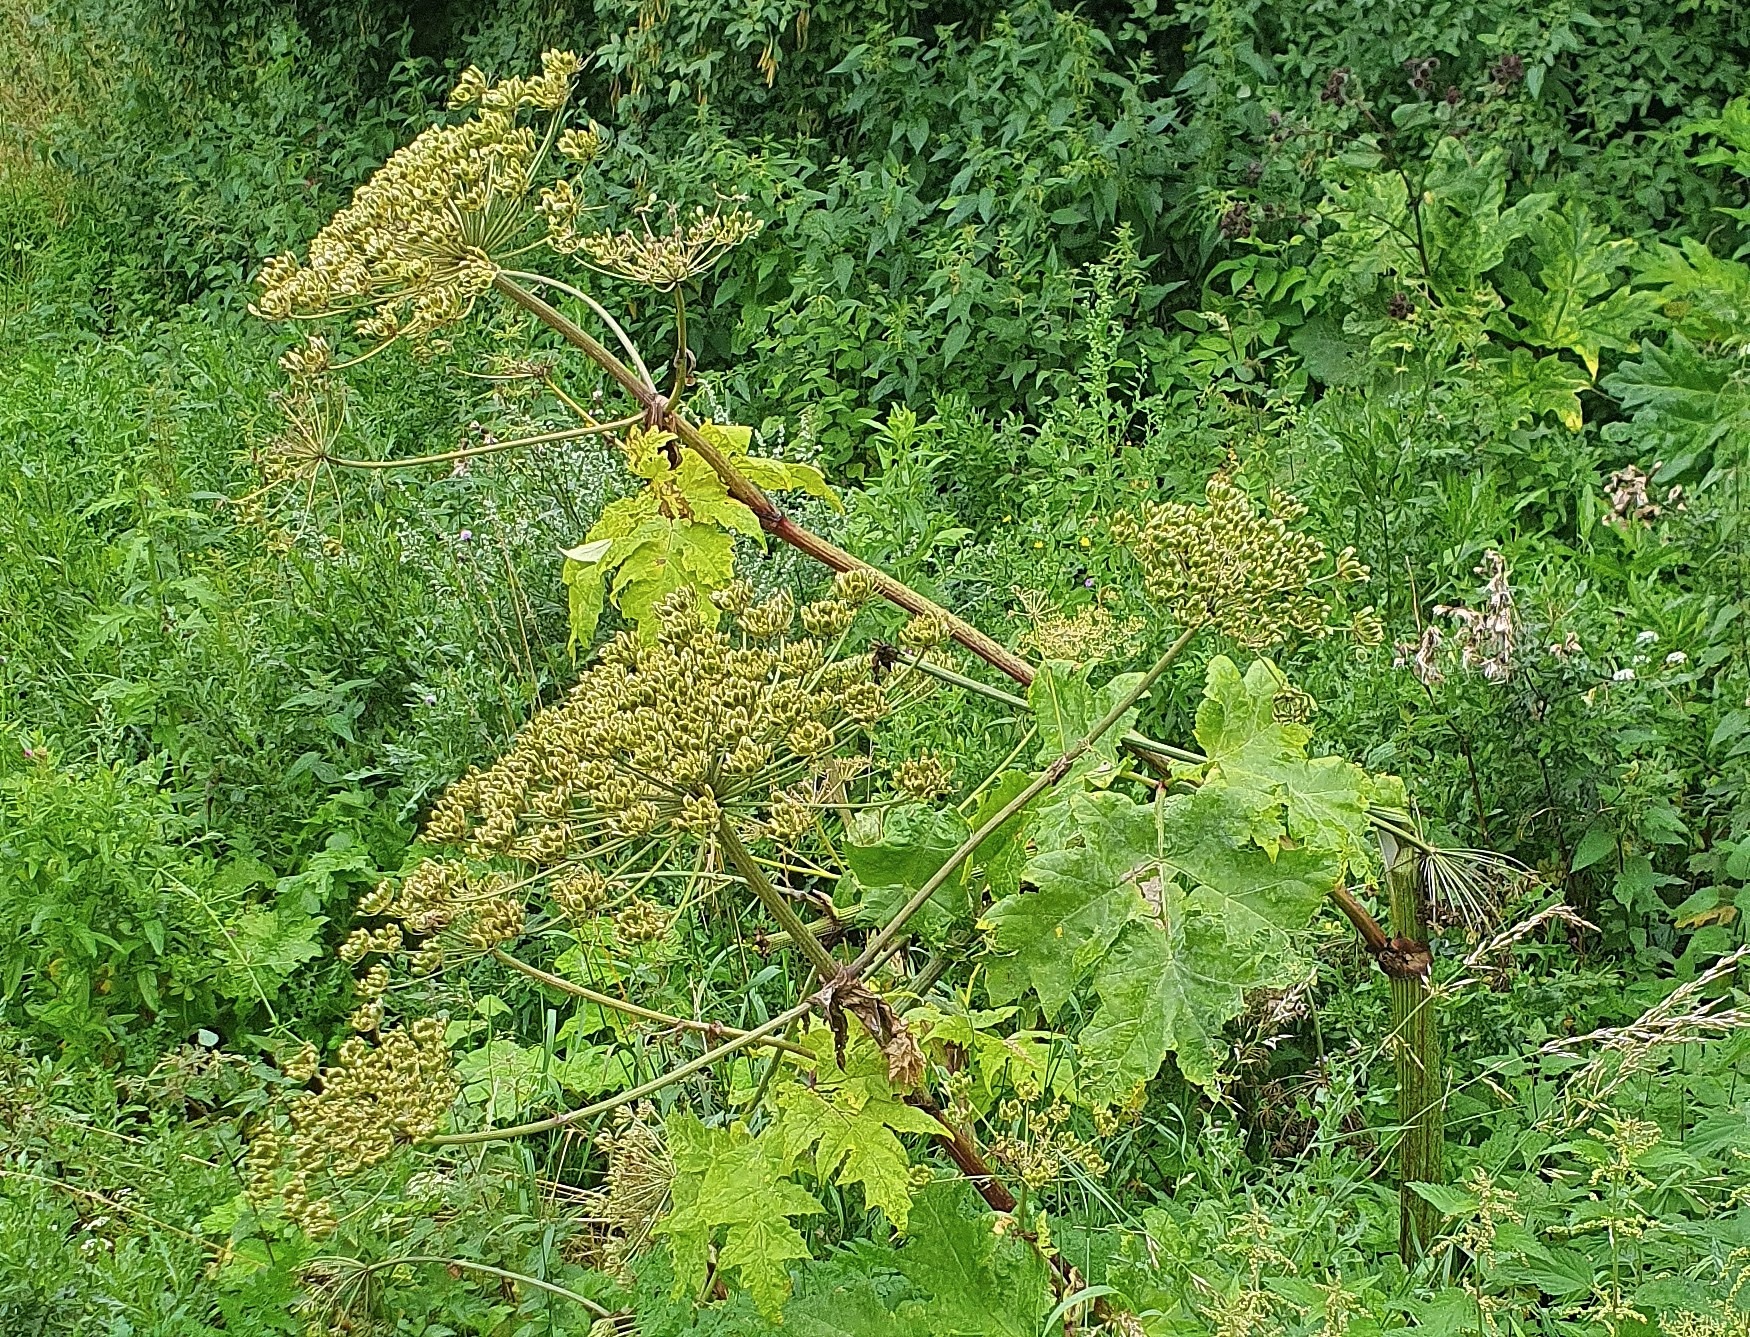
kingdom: Plantae
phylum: Tracheophyta
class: Magnoliopsida
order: Apiales
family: Apiaceae
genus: Heracleum
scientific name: Heracleum mantegazzianum
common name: Kæmpe-bjørneklo
